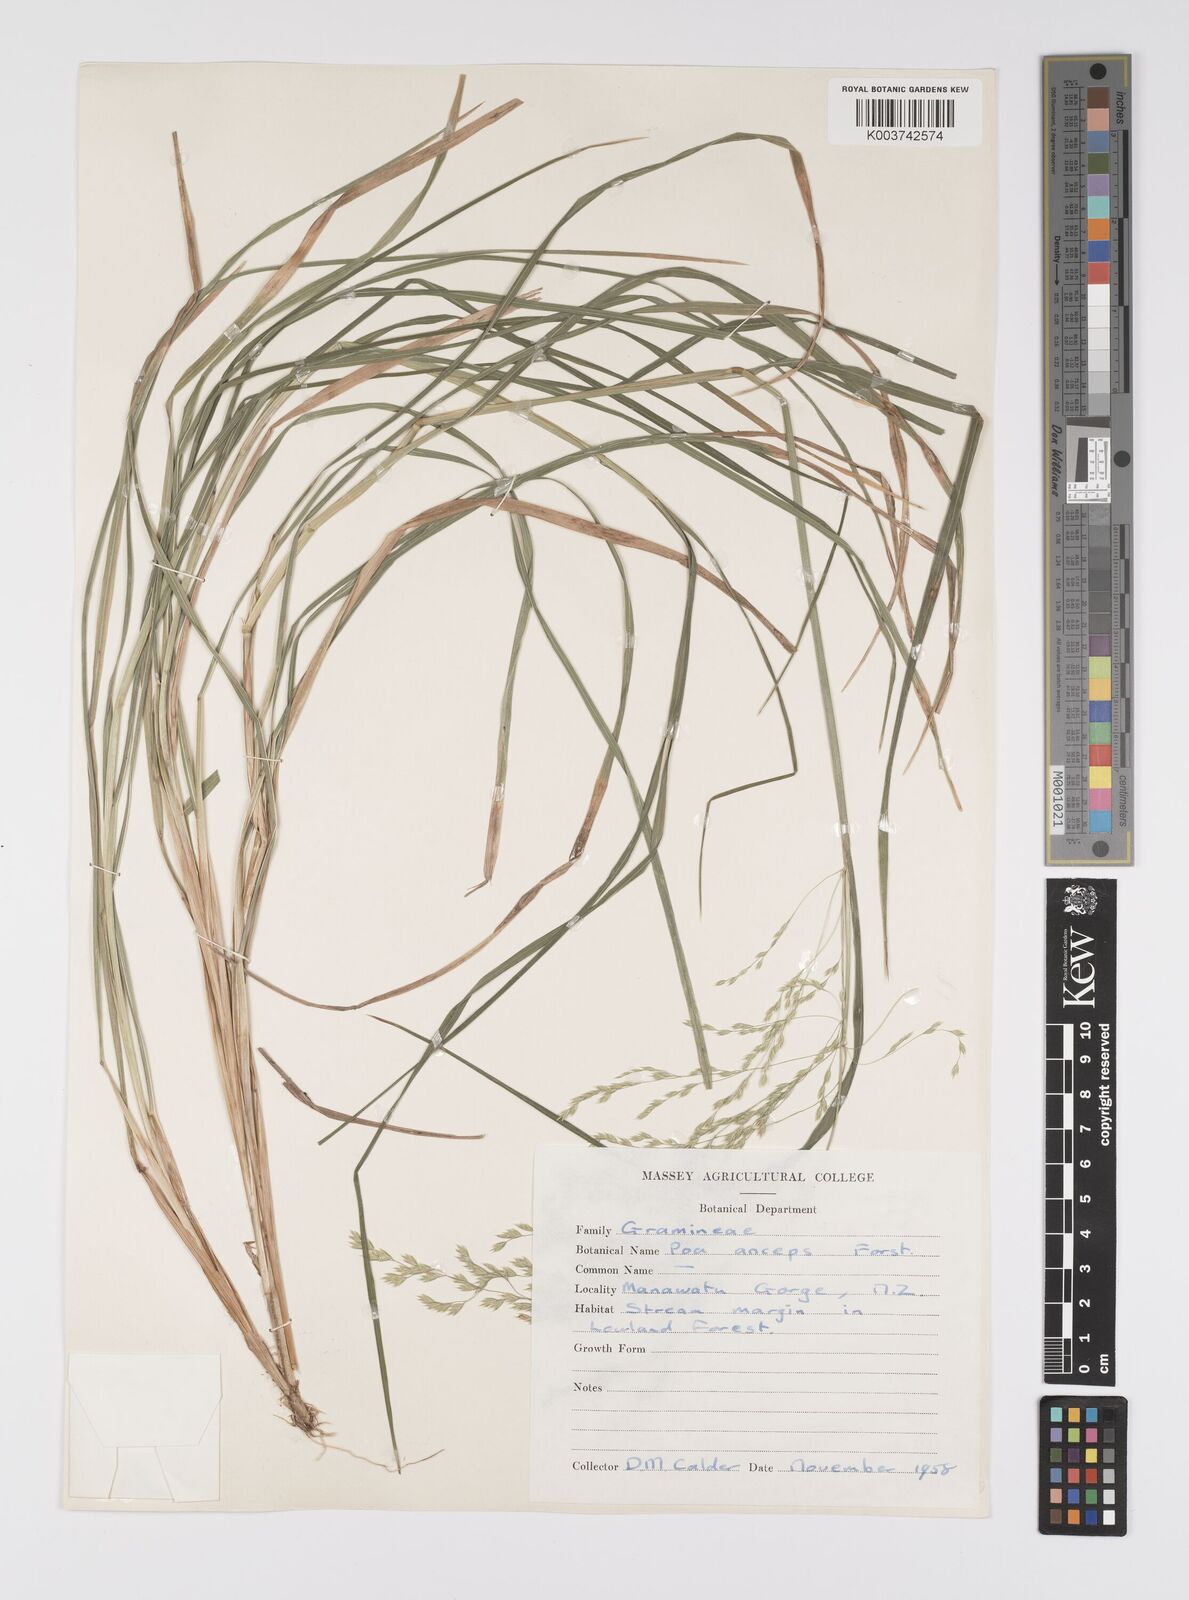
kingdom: Plantae
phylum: Tracheophyta
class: Liliopsida
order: Poales
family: Poaceae
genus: Poa
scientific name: Poa anceps
